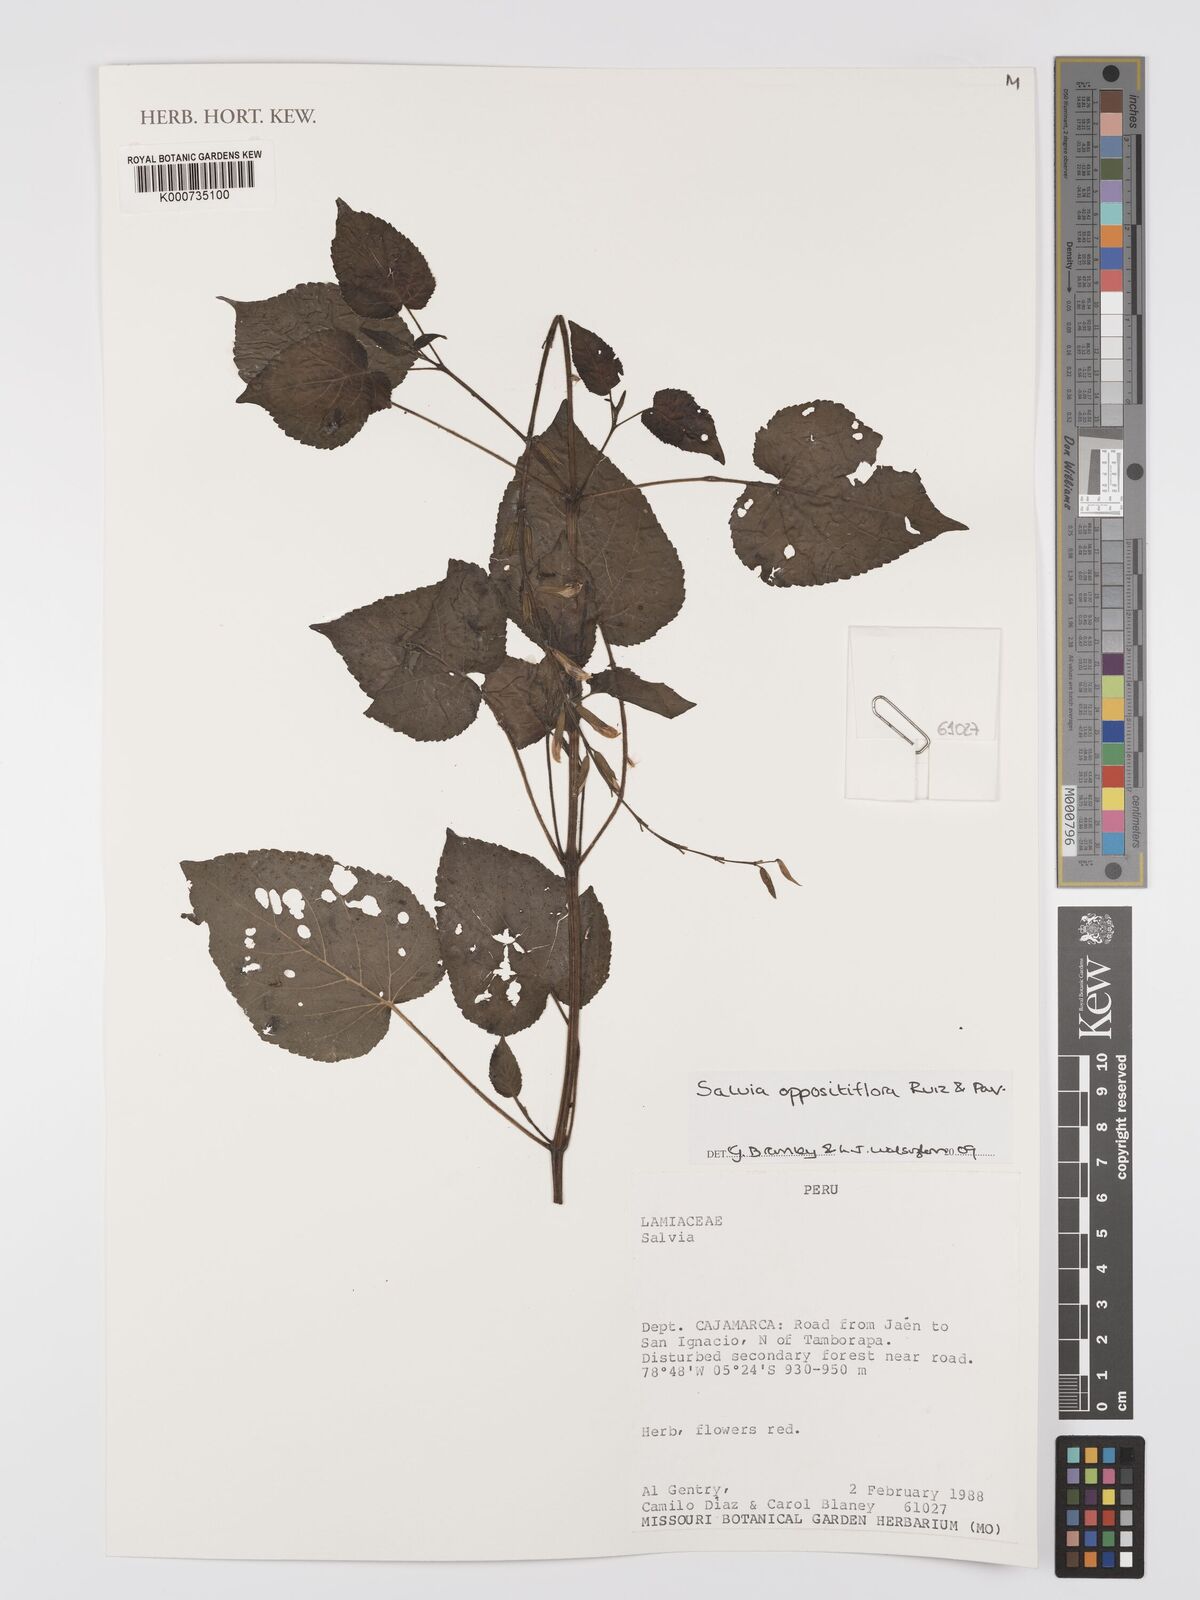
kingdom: Plantae
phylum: Tracheophyta
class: Magnoliopsida
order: Lamiales
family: Lamiaceae
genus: Salvia
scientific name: Salvia oppositiflora
